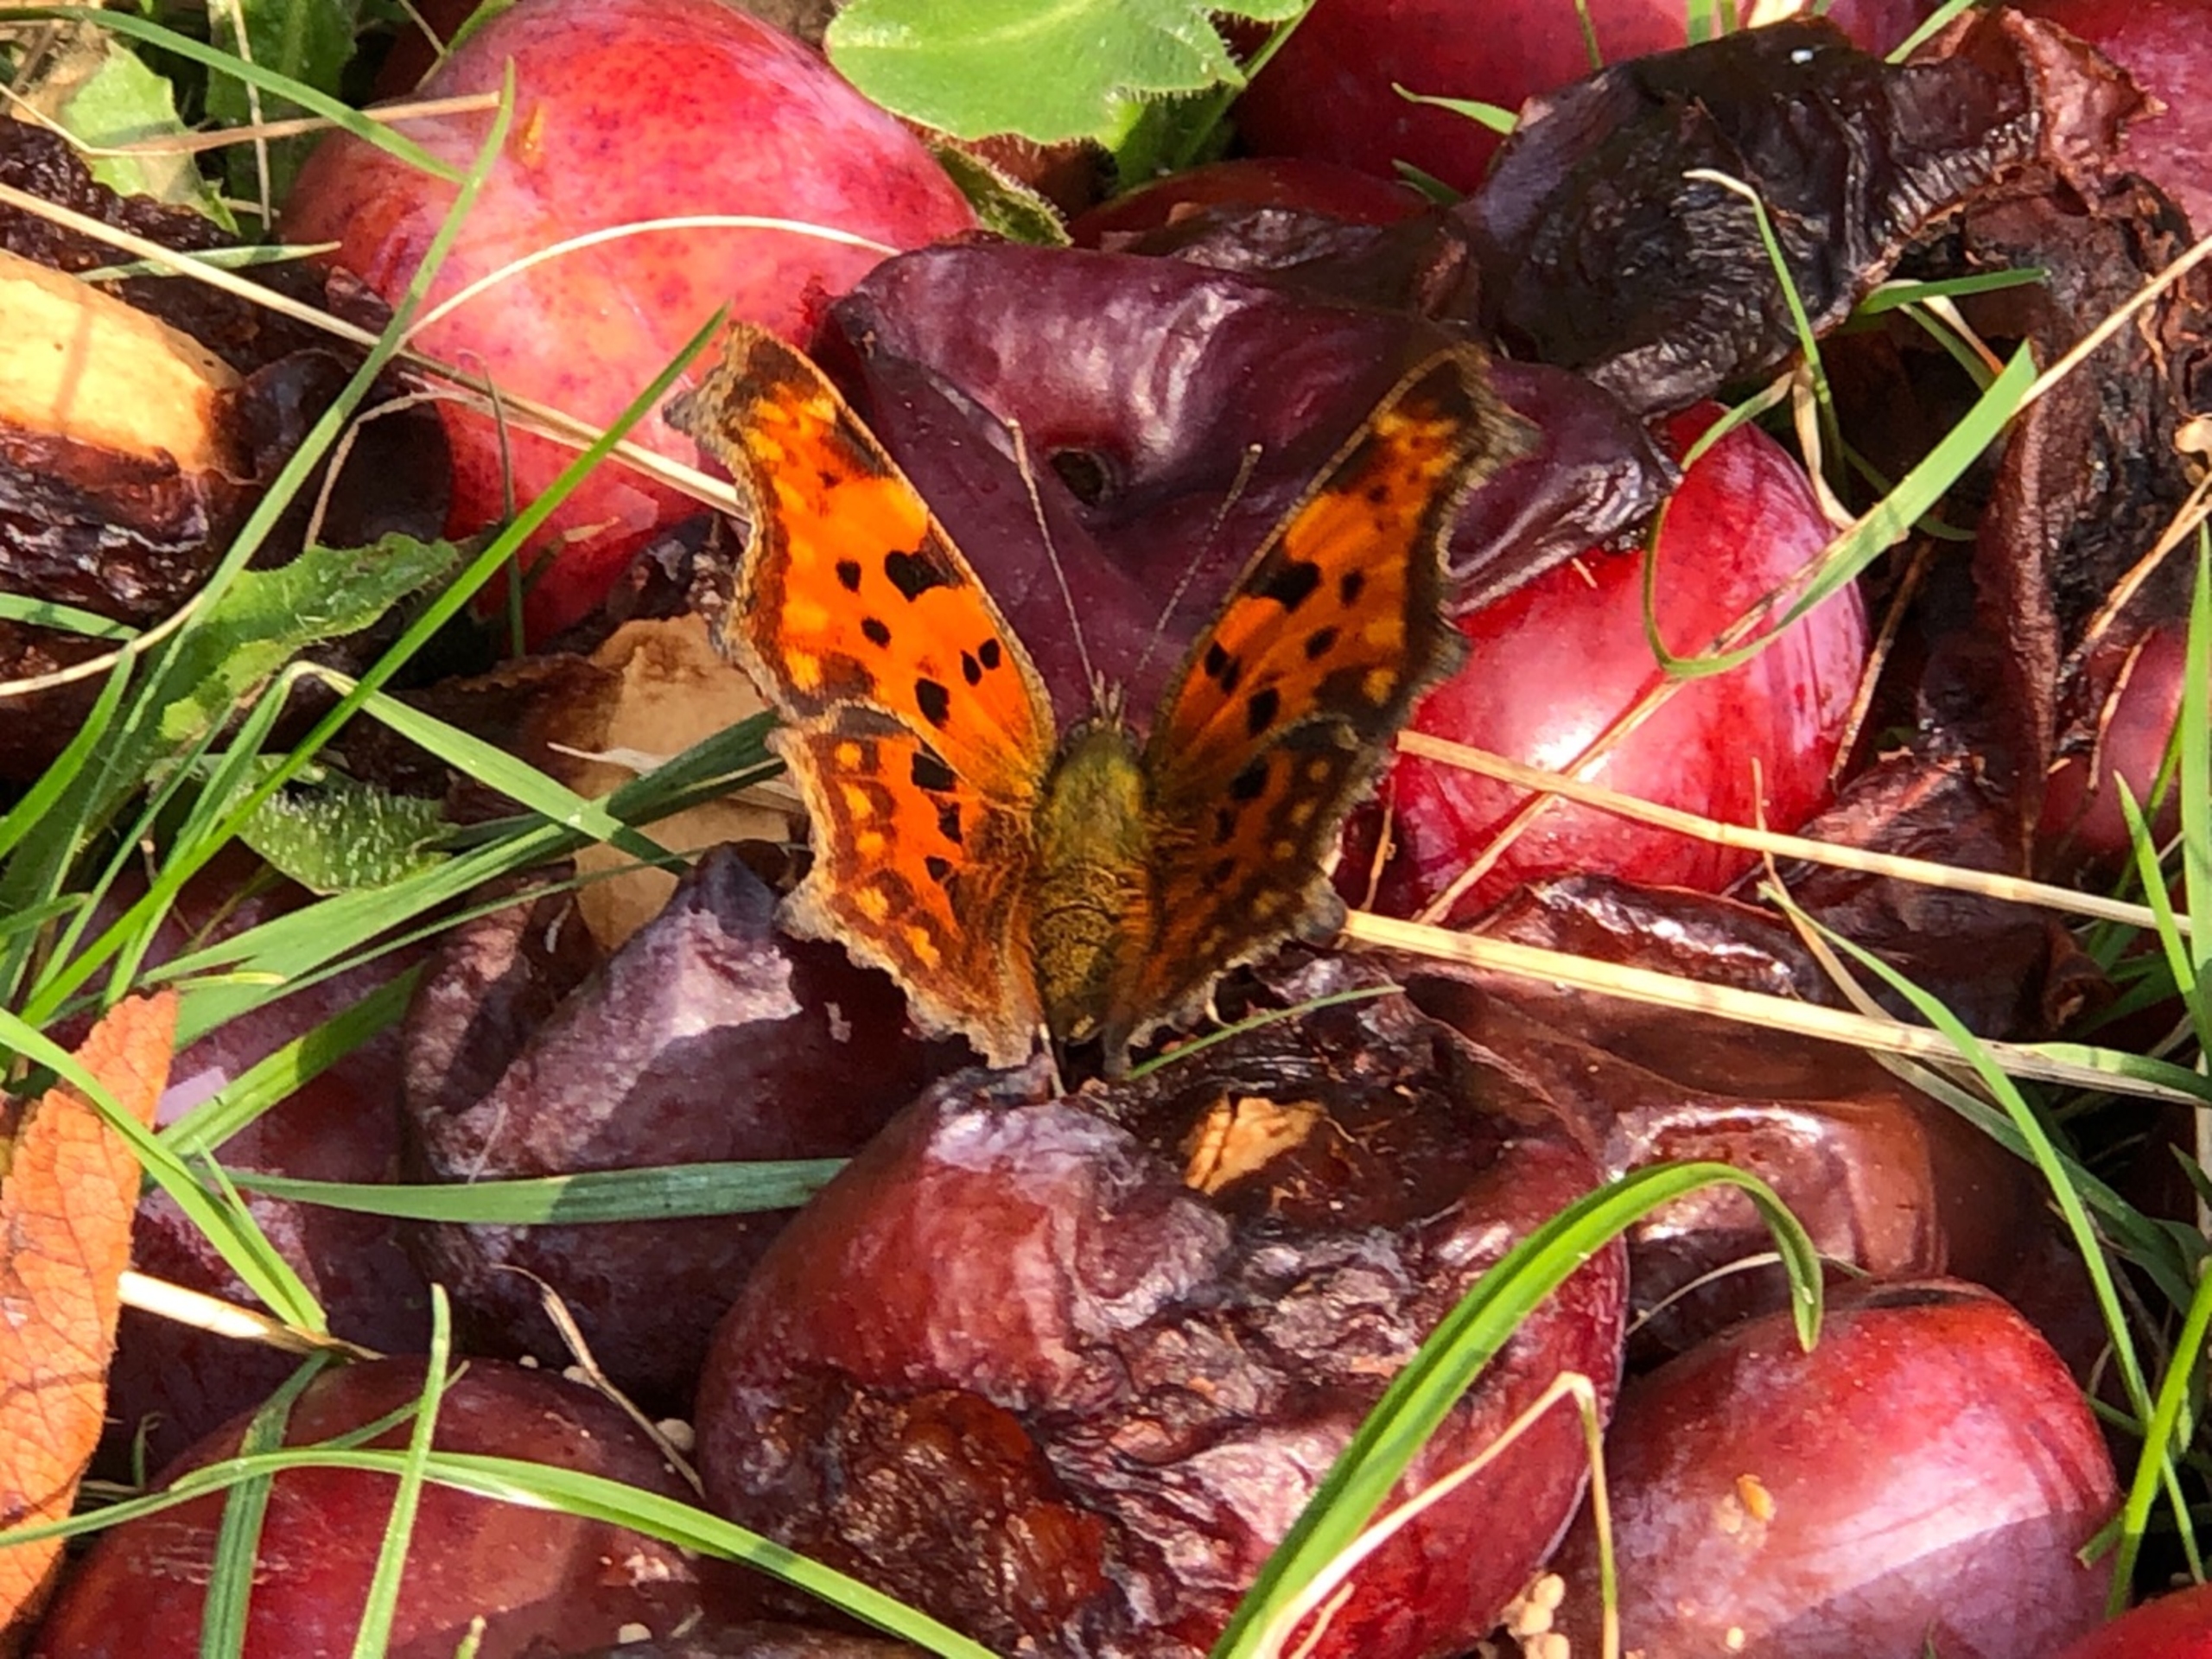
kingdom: Animalia
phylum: Arthropoda
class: Insecta
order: Lepidoptera
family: Nymphalidae
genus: Polygonia
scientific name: Polygonia c-album
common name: Det hvide C
